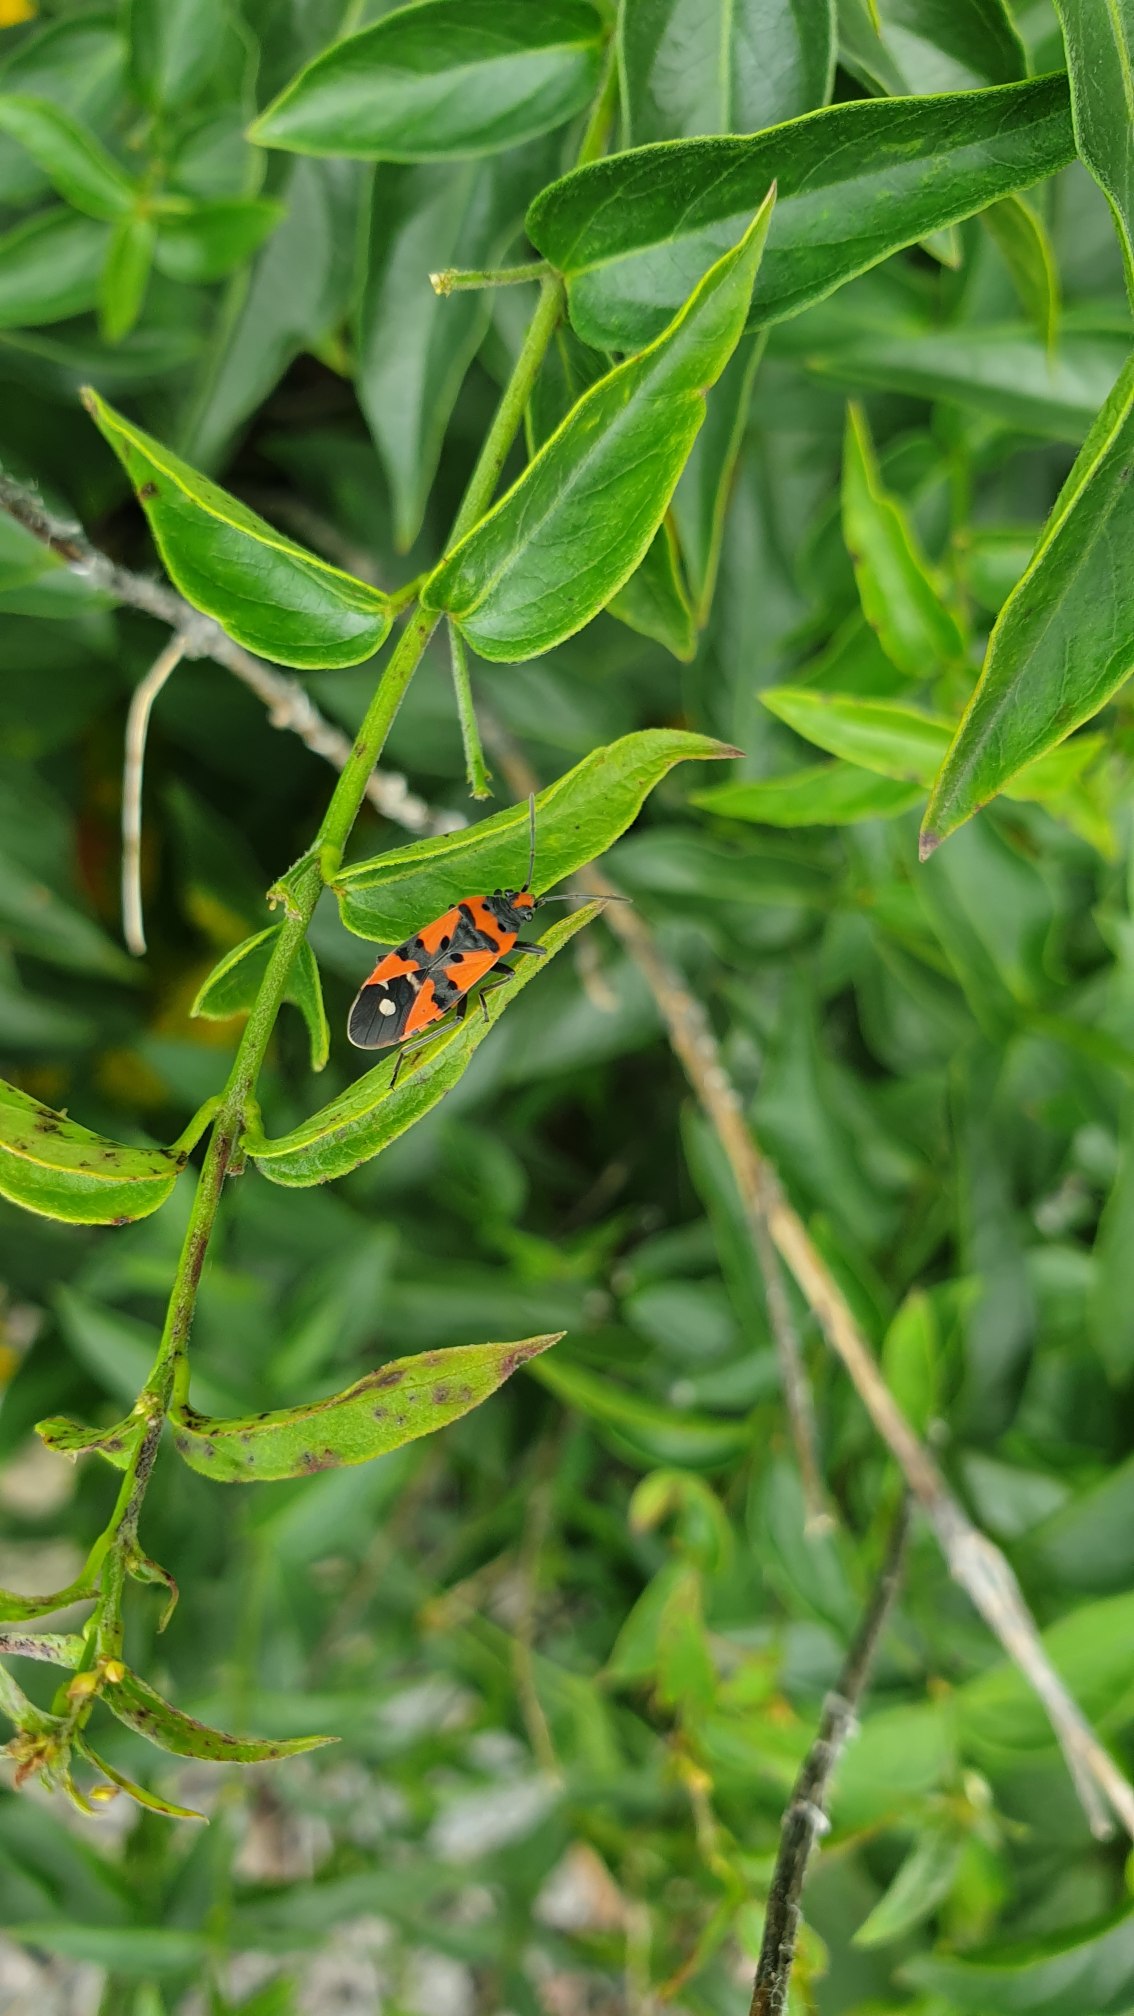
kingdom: Animalia
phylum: Arthropoda
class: Insecta
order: Hemiptera
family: Lygaeidae
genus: Lygaeus
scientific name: Lygaeus equestris
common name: Soldatertæge
